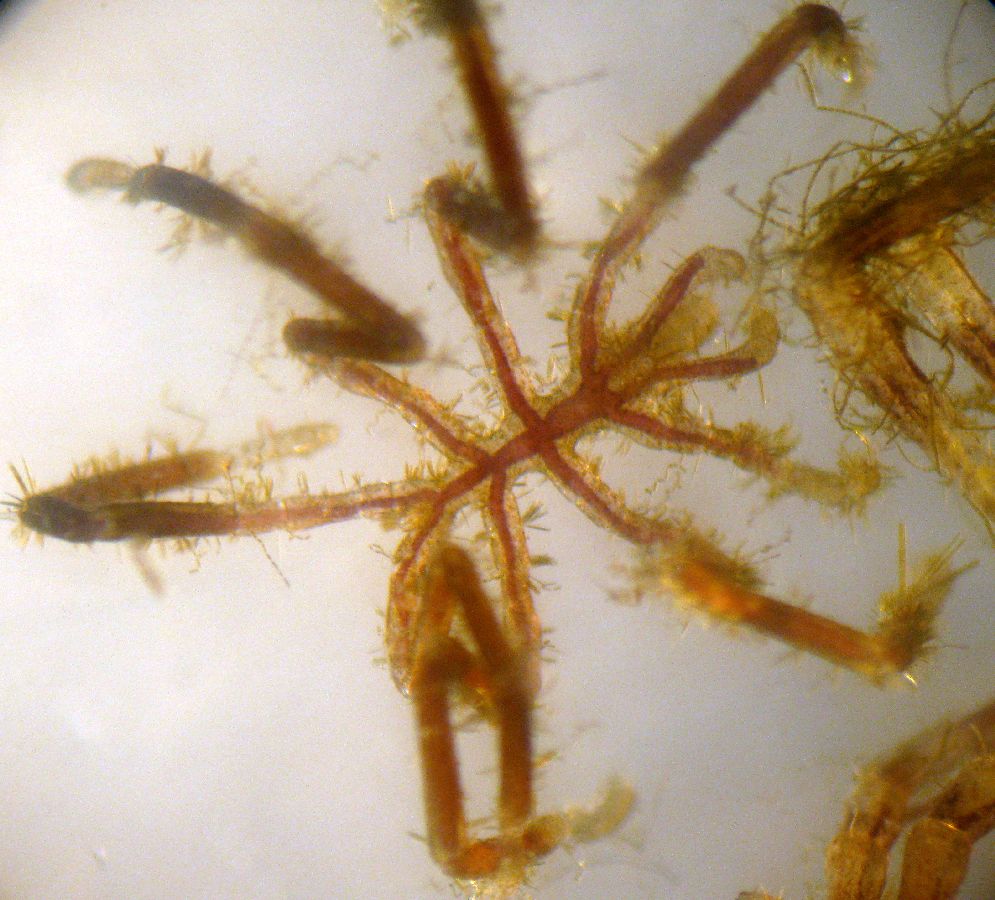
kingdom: Animalia
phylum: Arthropoda
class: Pycnogonida
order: Pantopoda
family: Phoxichilidiidae
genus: Phoxichilidium
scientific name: Phoxichilidium femoratum
